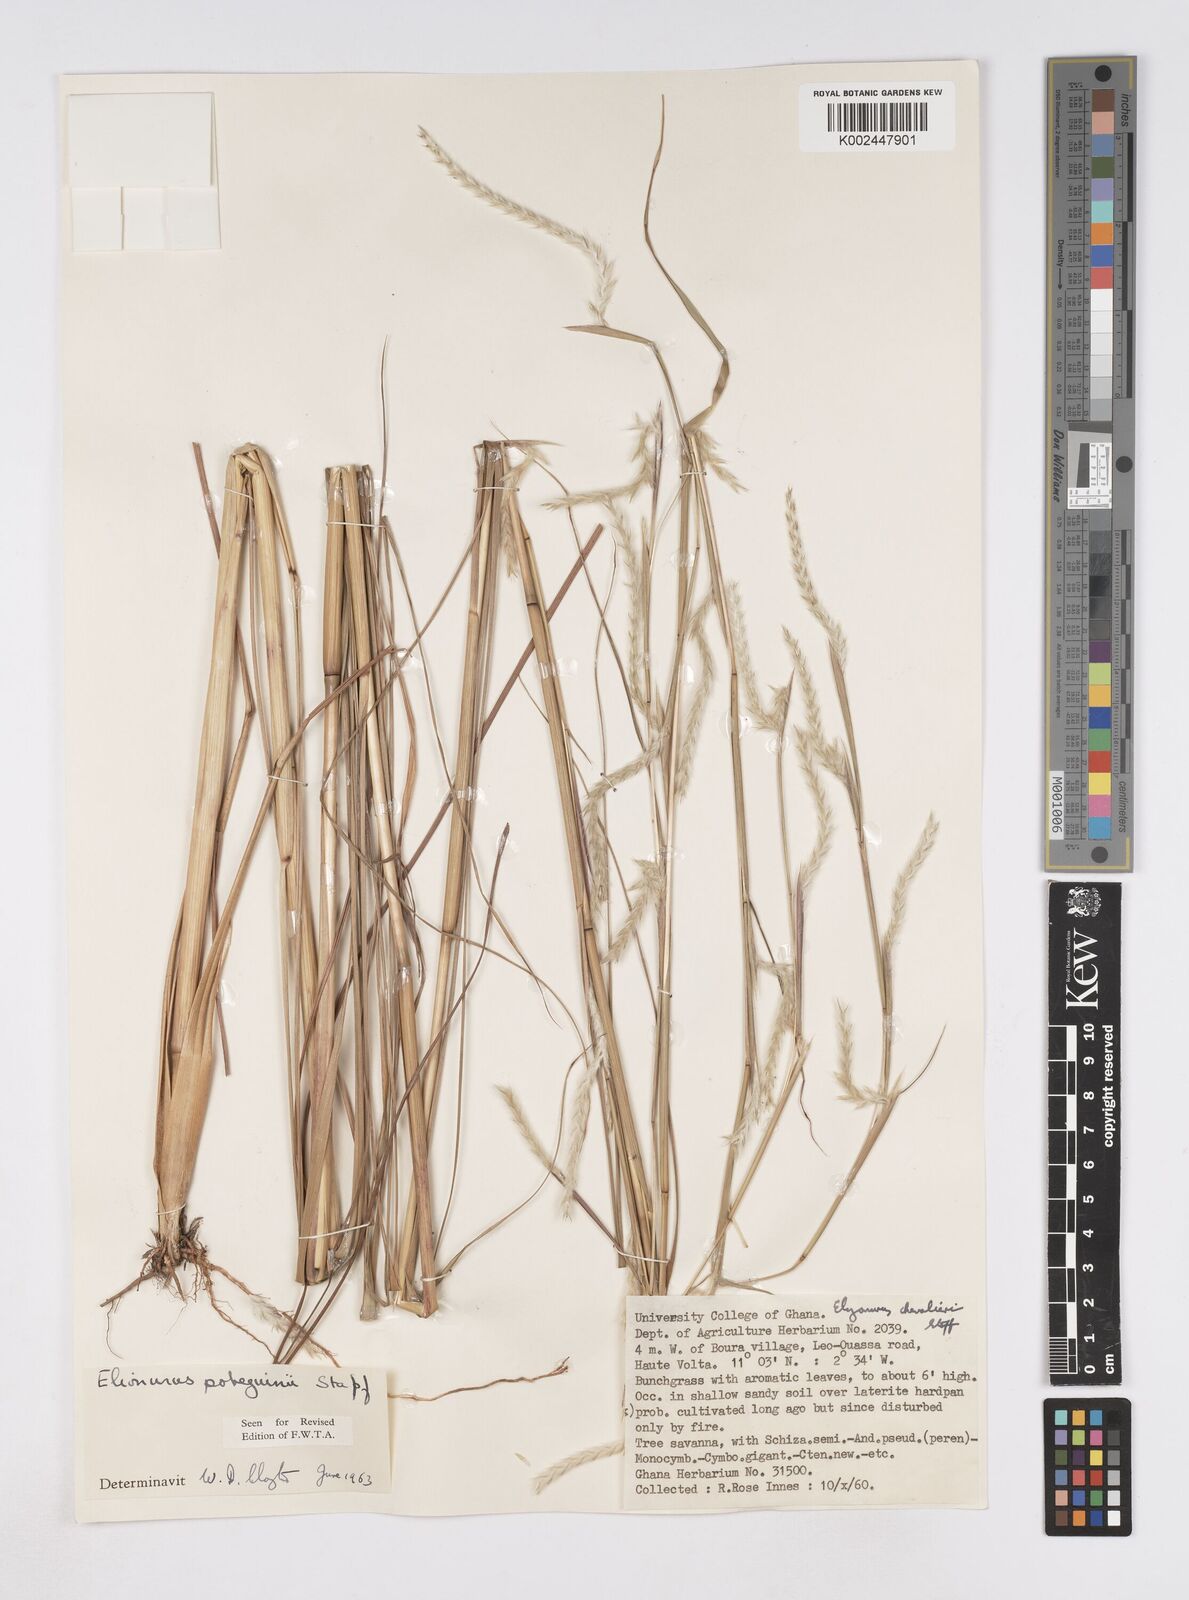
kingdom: Plantae
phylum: Tracheophyta
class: Liliopsida
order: Poales
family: Poaceae
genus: Elionurus
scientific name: Elionurus ciliaris
